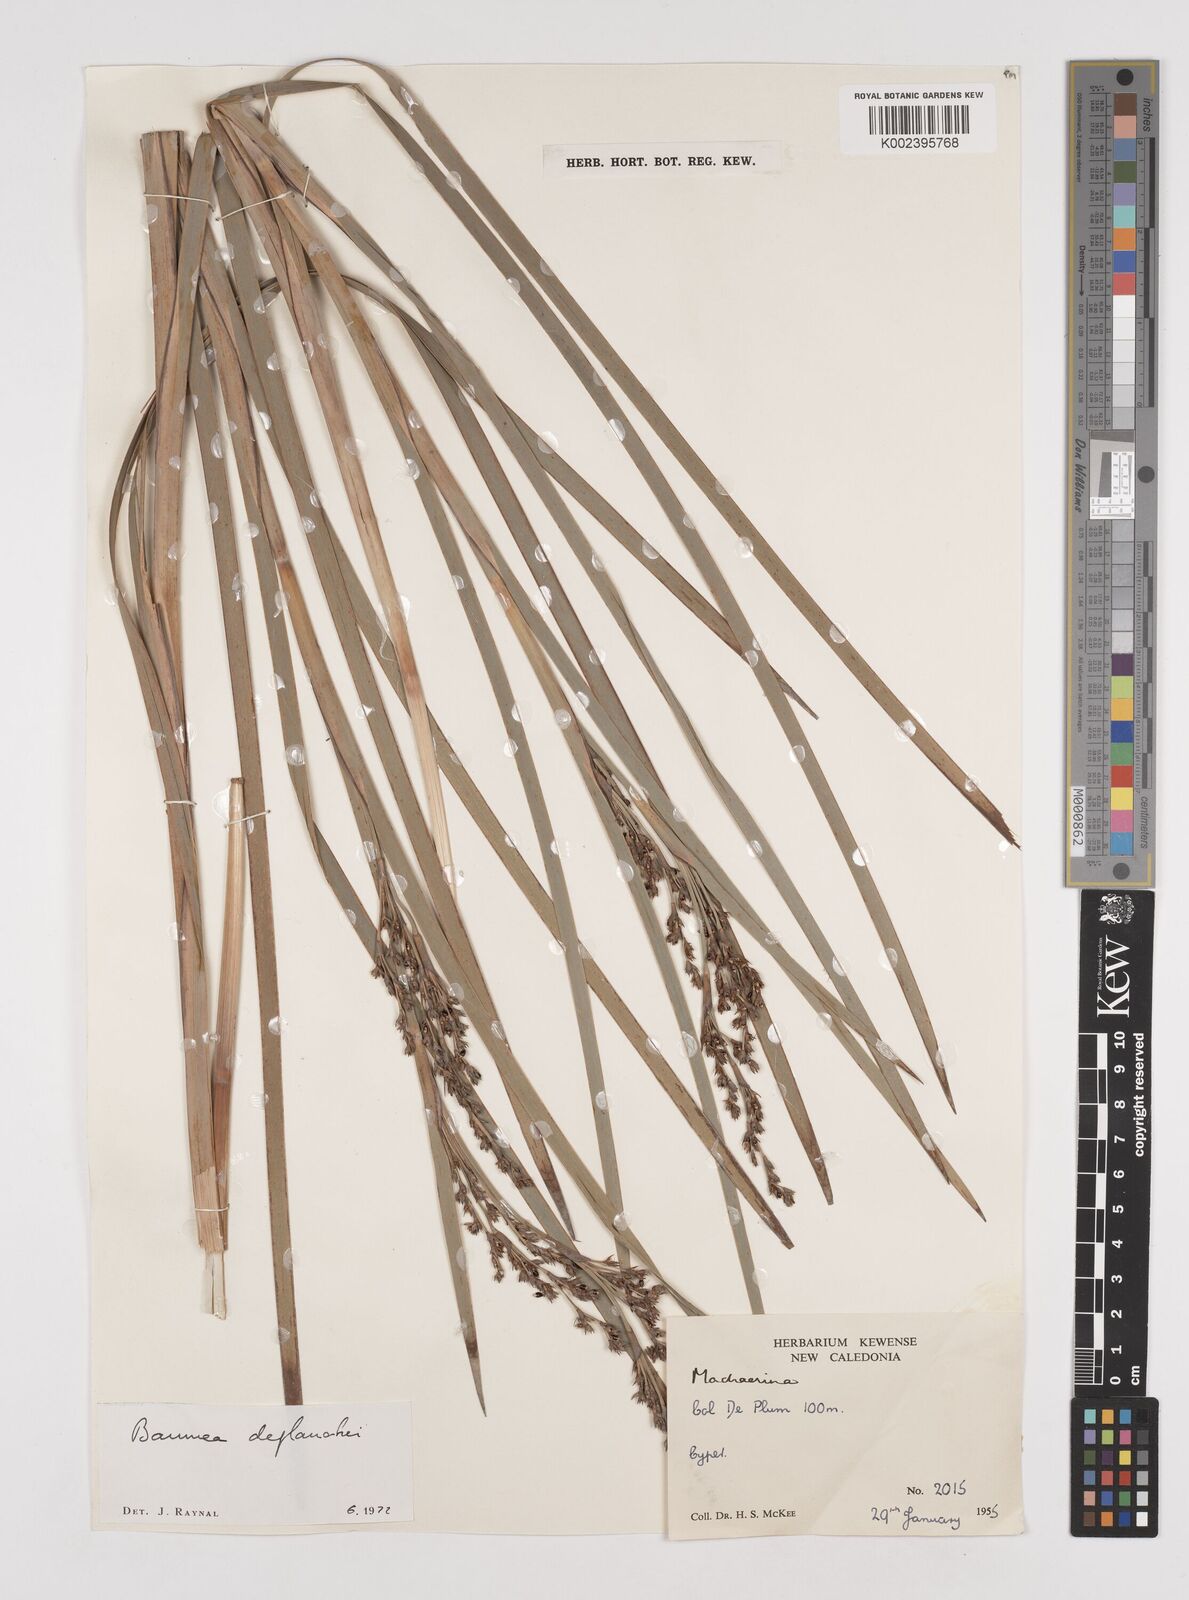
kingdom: Plantae
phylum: Tracheophyta
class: Liliopsida
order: Poales
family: Cyperaceae
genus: Machaerina
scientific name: Machaerina deplanchei
